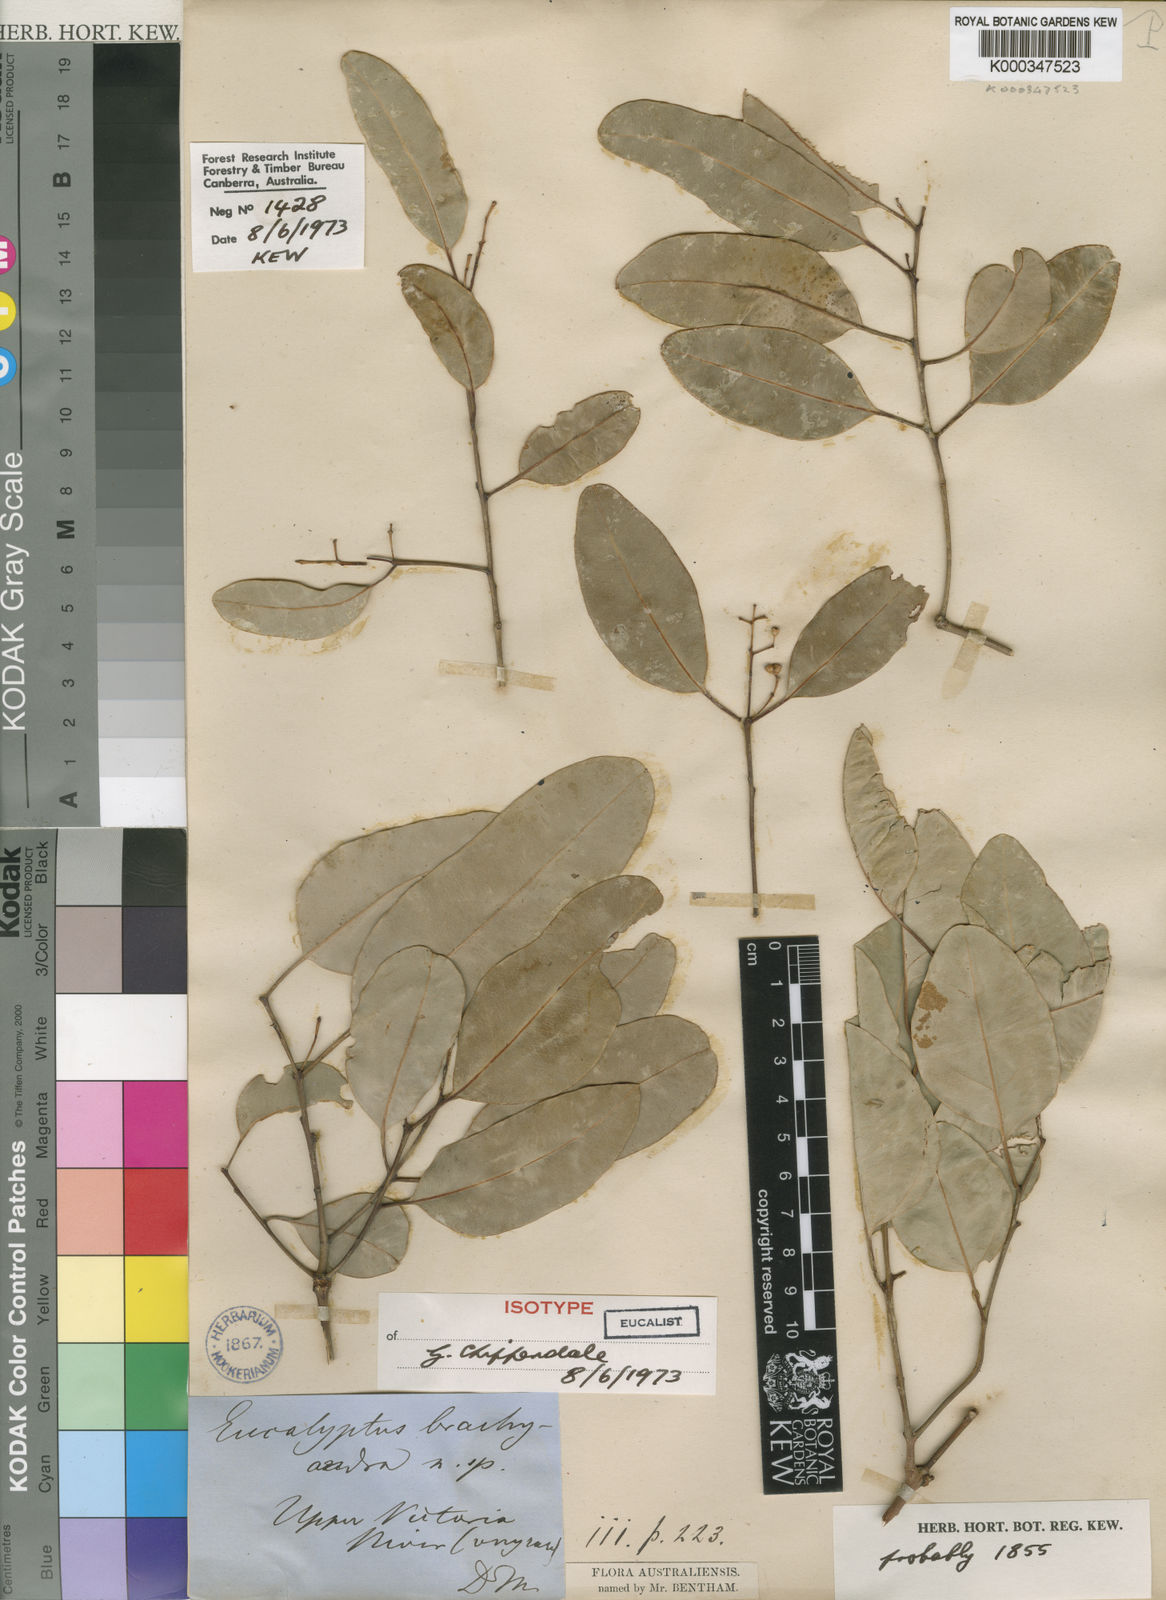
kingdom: Plantae
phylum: Tracheophyta
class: Magnoliopsida
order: Myrtales
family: Myrtaceae
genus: Eucalyptus
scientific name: Eucalyptus brachyandra
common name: Tropical-red-box
